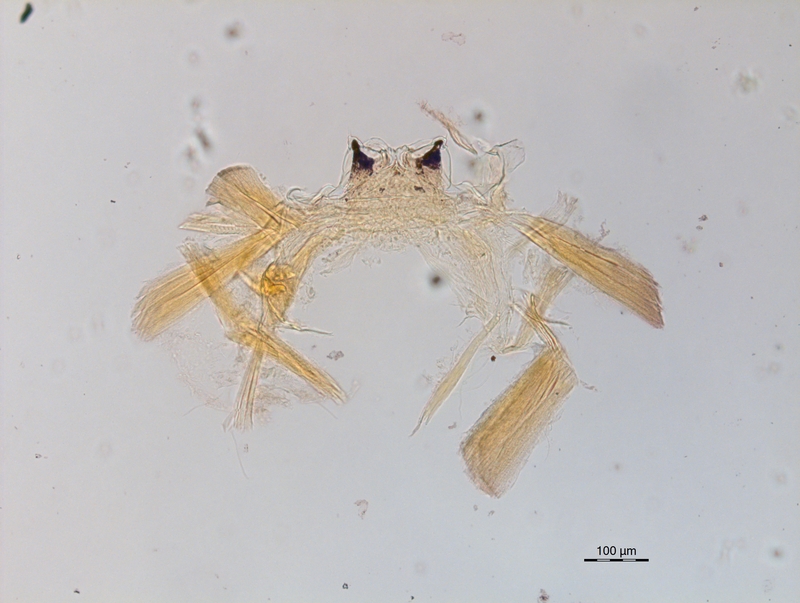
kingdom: Animalia
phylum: Arthropoda
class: Diplopoda
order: Chordeumatida
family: Craspedosomatidae
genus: Ochogona
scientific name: Ochogona pusilla
